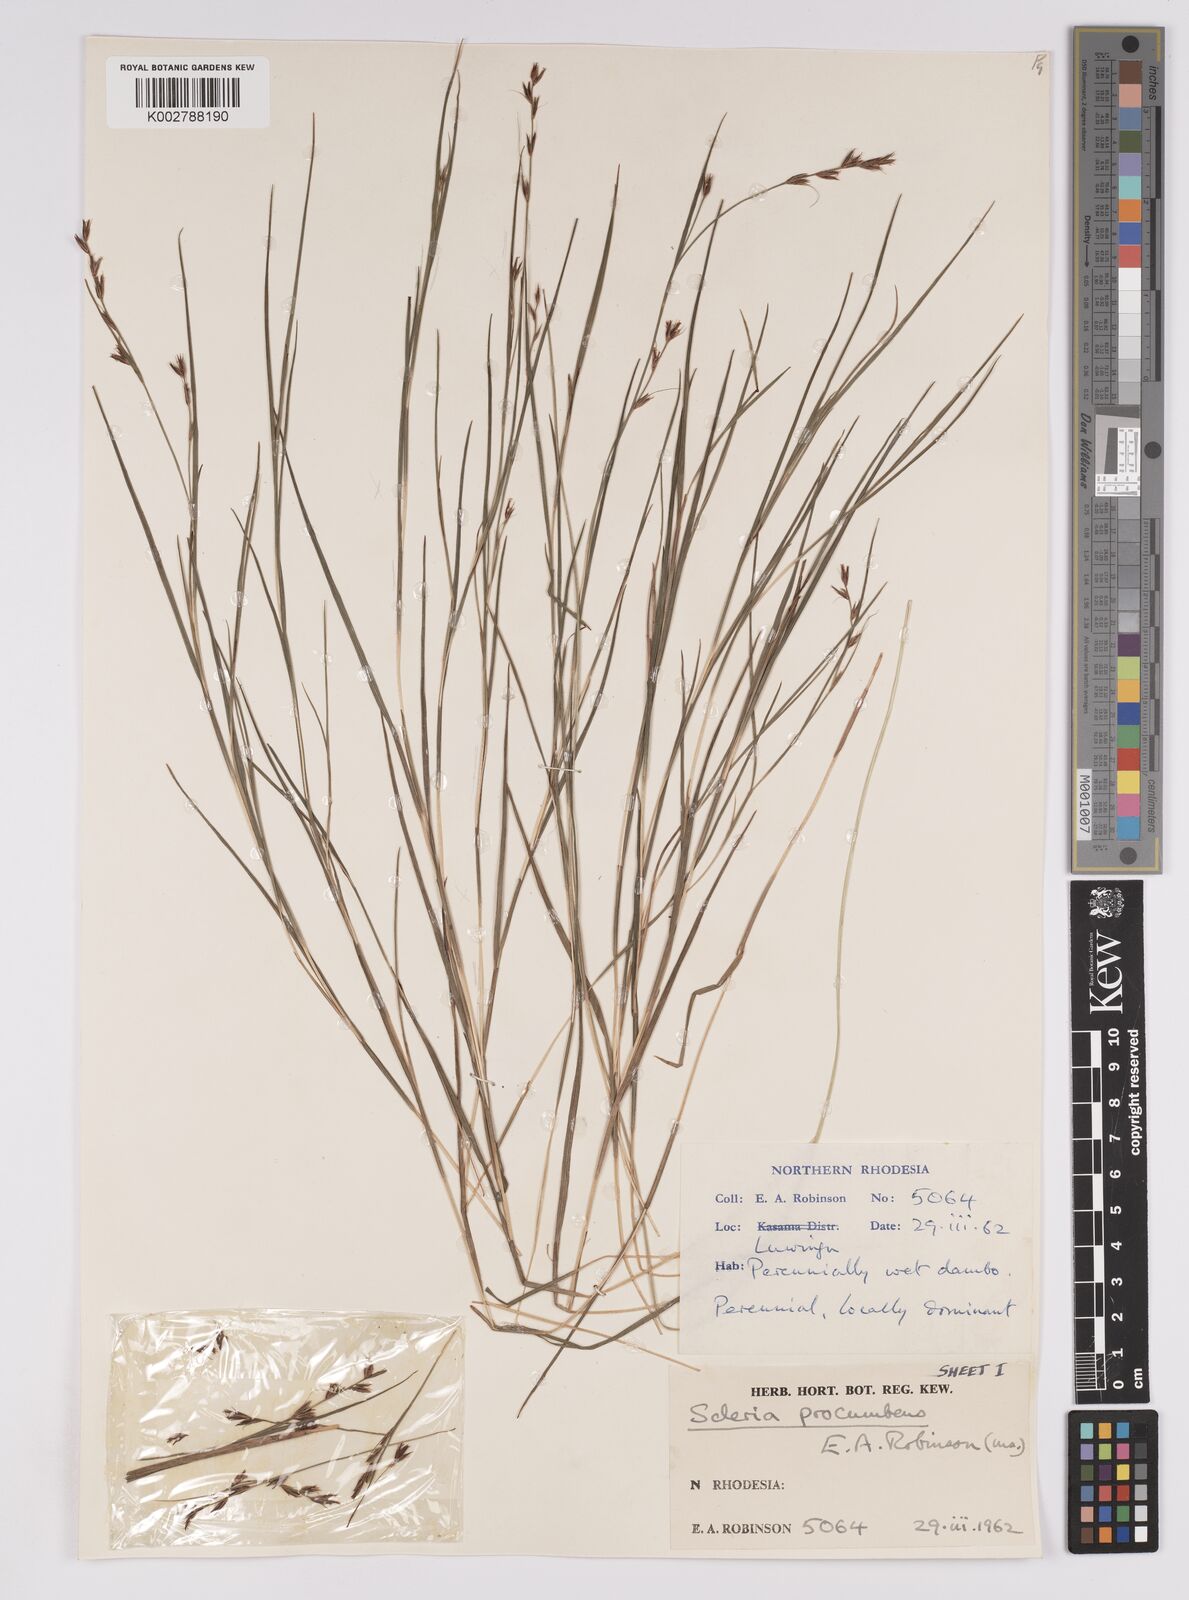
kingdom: Plantae
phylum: Tracheophyta
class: Liliopsida
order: Poales
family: Cyperaceae
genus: Scleria
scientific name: Scleria procumbens
